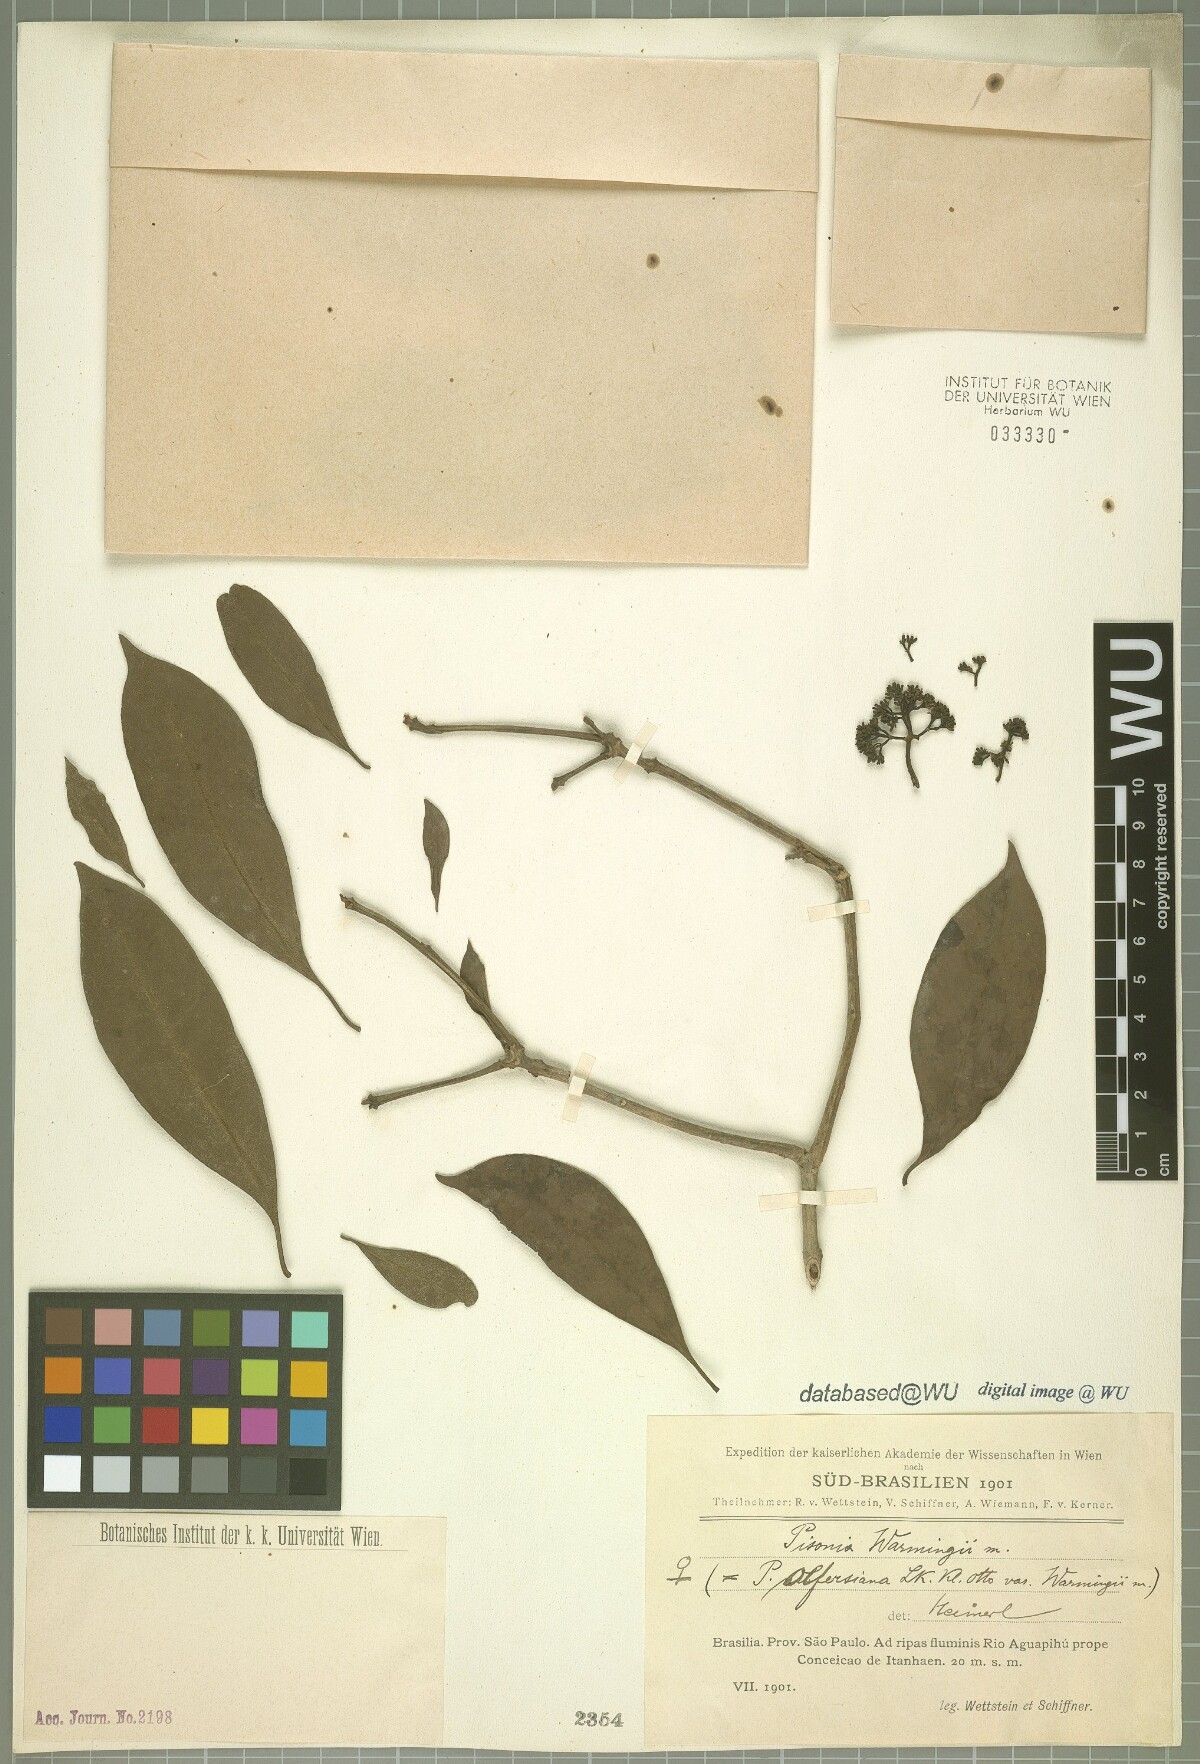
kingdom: Plantae
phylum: Tracheophyta
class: Magnoliopsida
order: Caryophyllales
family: Nyctaginaceae
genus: Guapira
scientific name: Guapira warmingii
